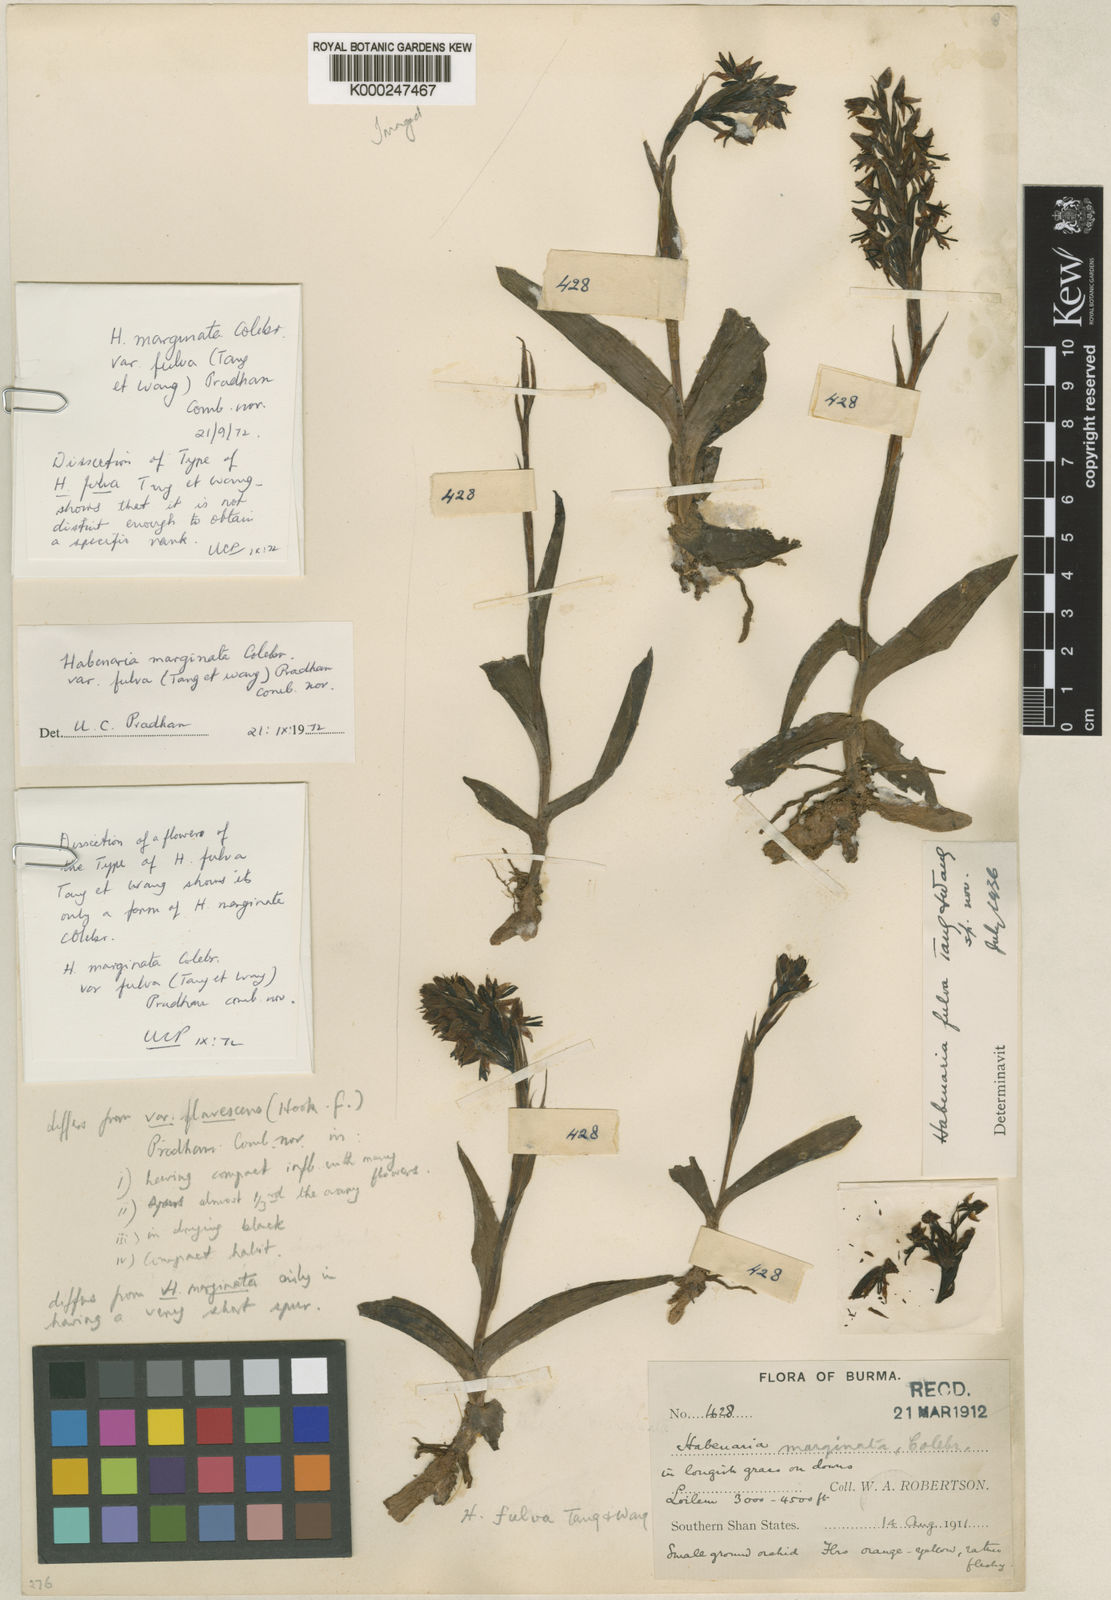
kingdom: Plantae
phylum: Tracheophyta
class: Liliopsida
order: Asparagales
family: Orchidaceae
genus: Habenaria
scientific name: Habenaria marginata
